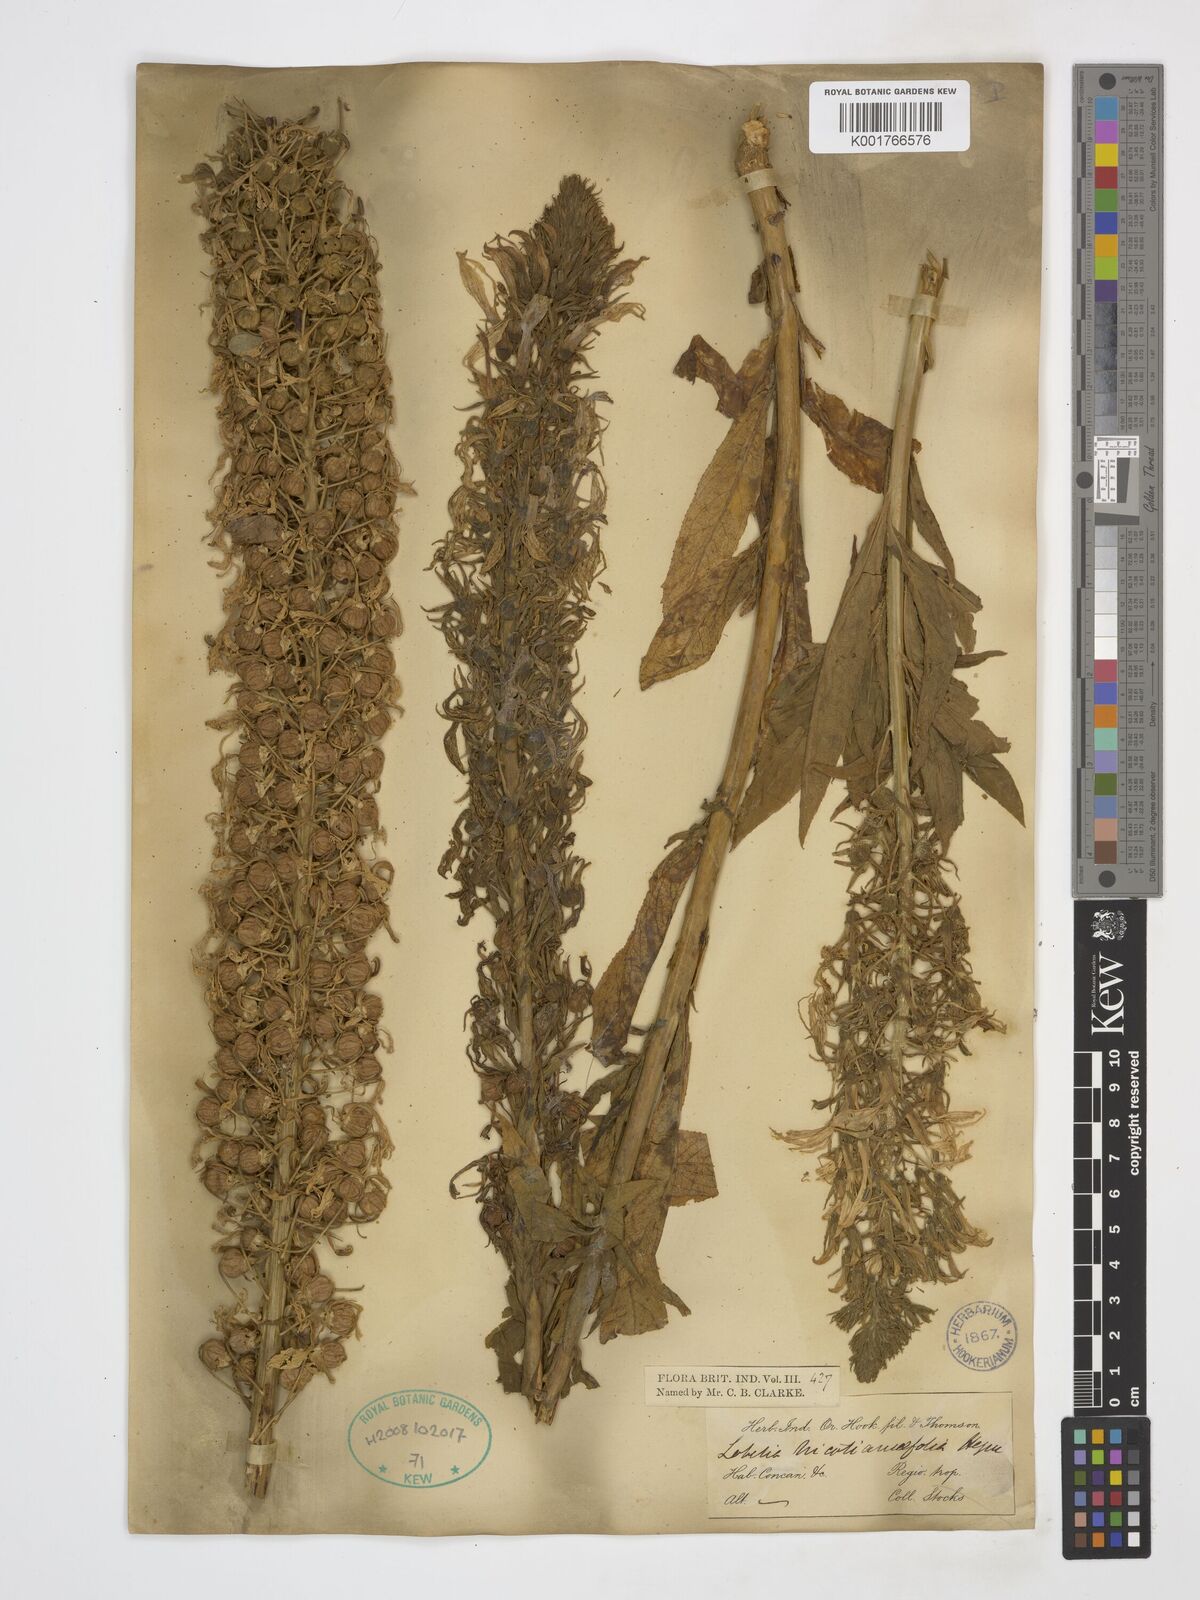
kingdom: Plantae
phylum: Tracheophyta
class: Magnoliopsida
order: Asterales
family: Campanulaceae
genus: Lobelia
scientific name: Lobelia nicotianifolia
